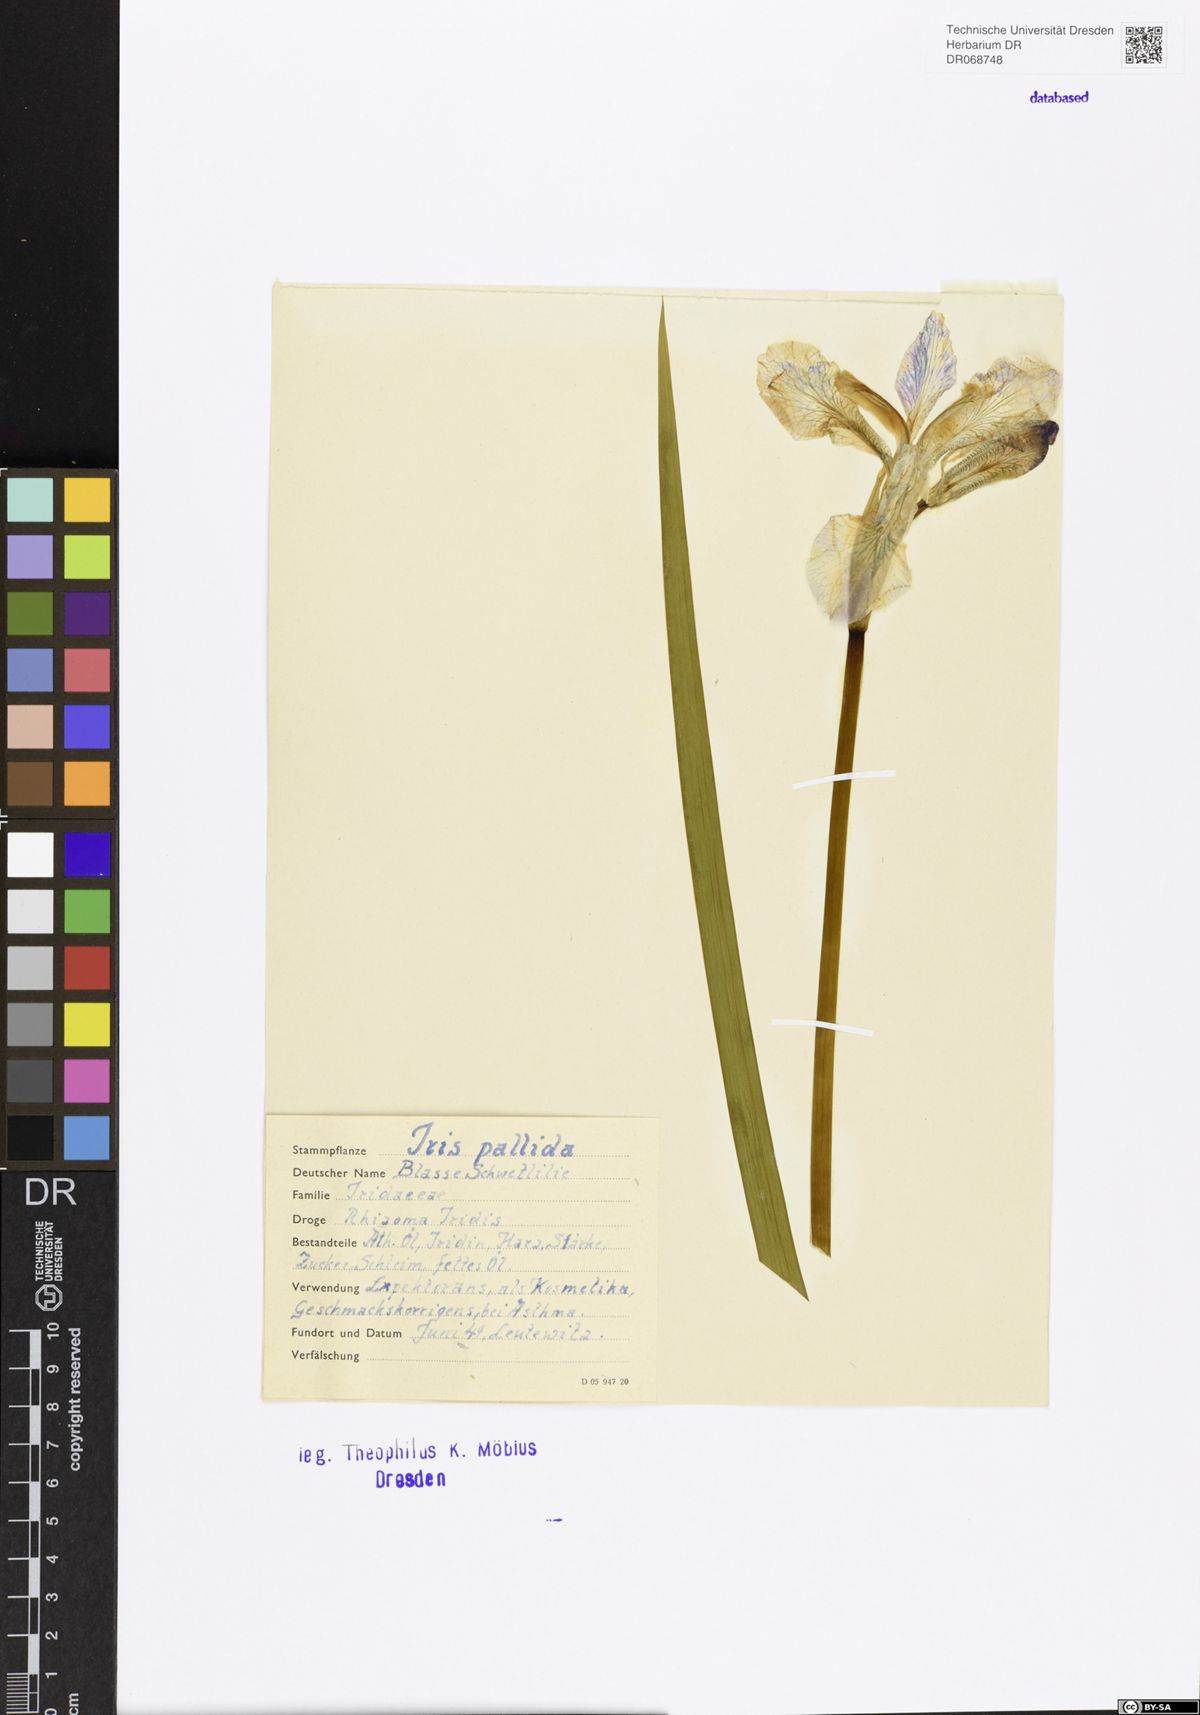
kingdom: Plantae
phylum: Tracheophyta
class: Liliopsida
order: Asparagales
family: Iridaceae
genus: Iris
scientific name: Iris pallida
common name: Sweet iris
